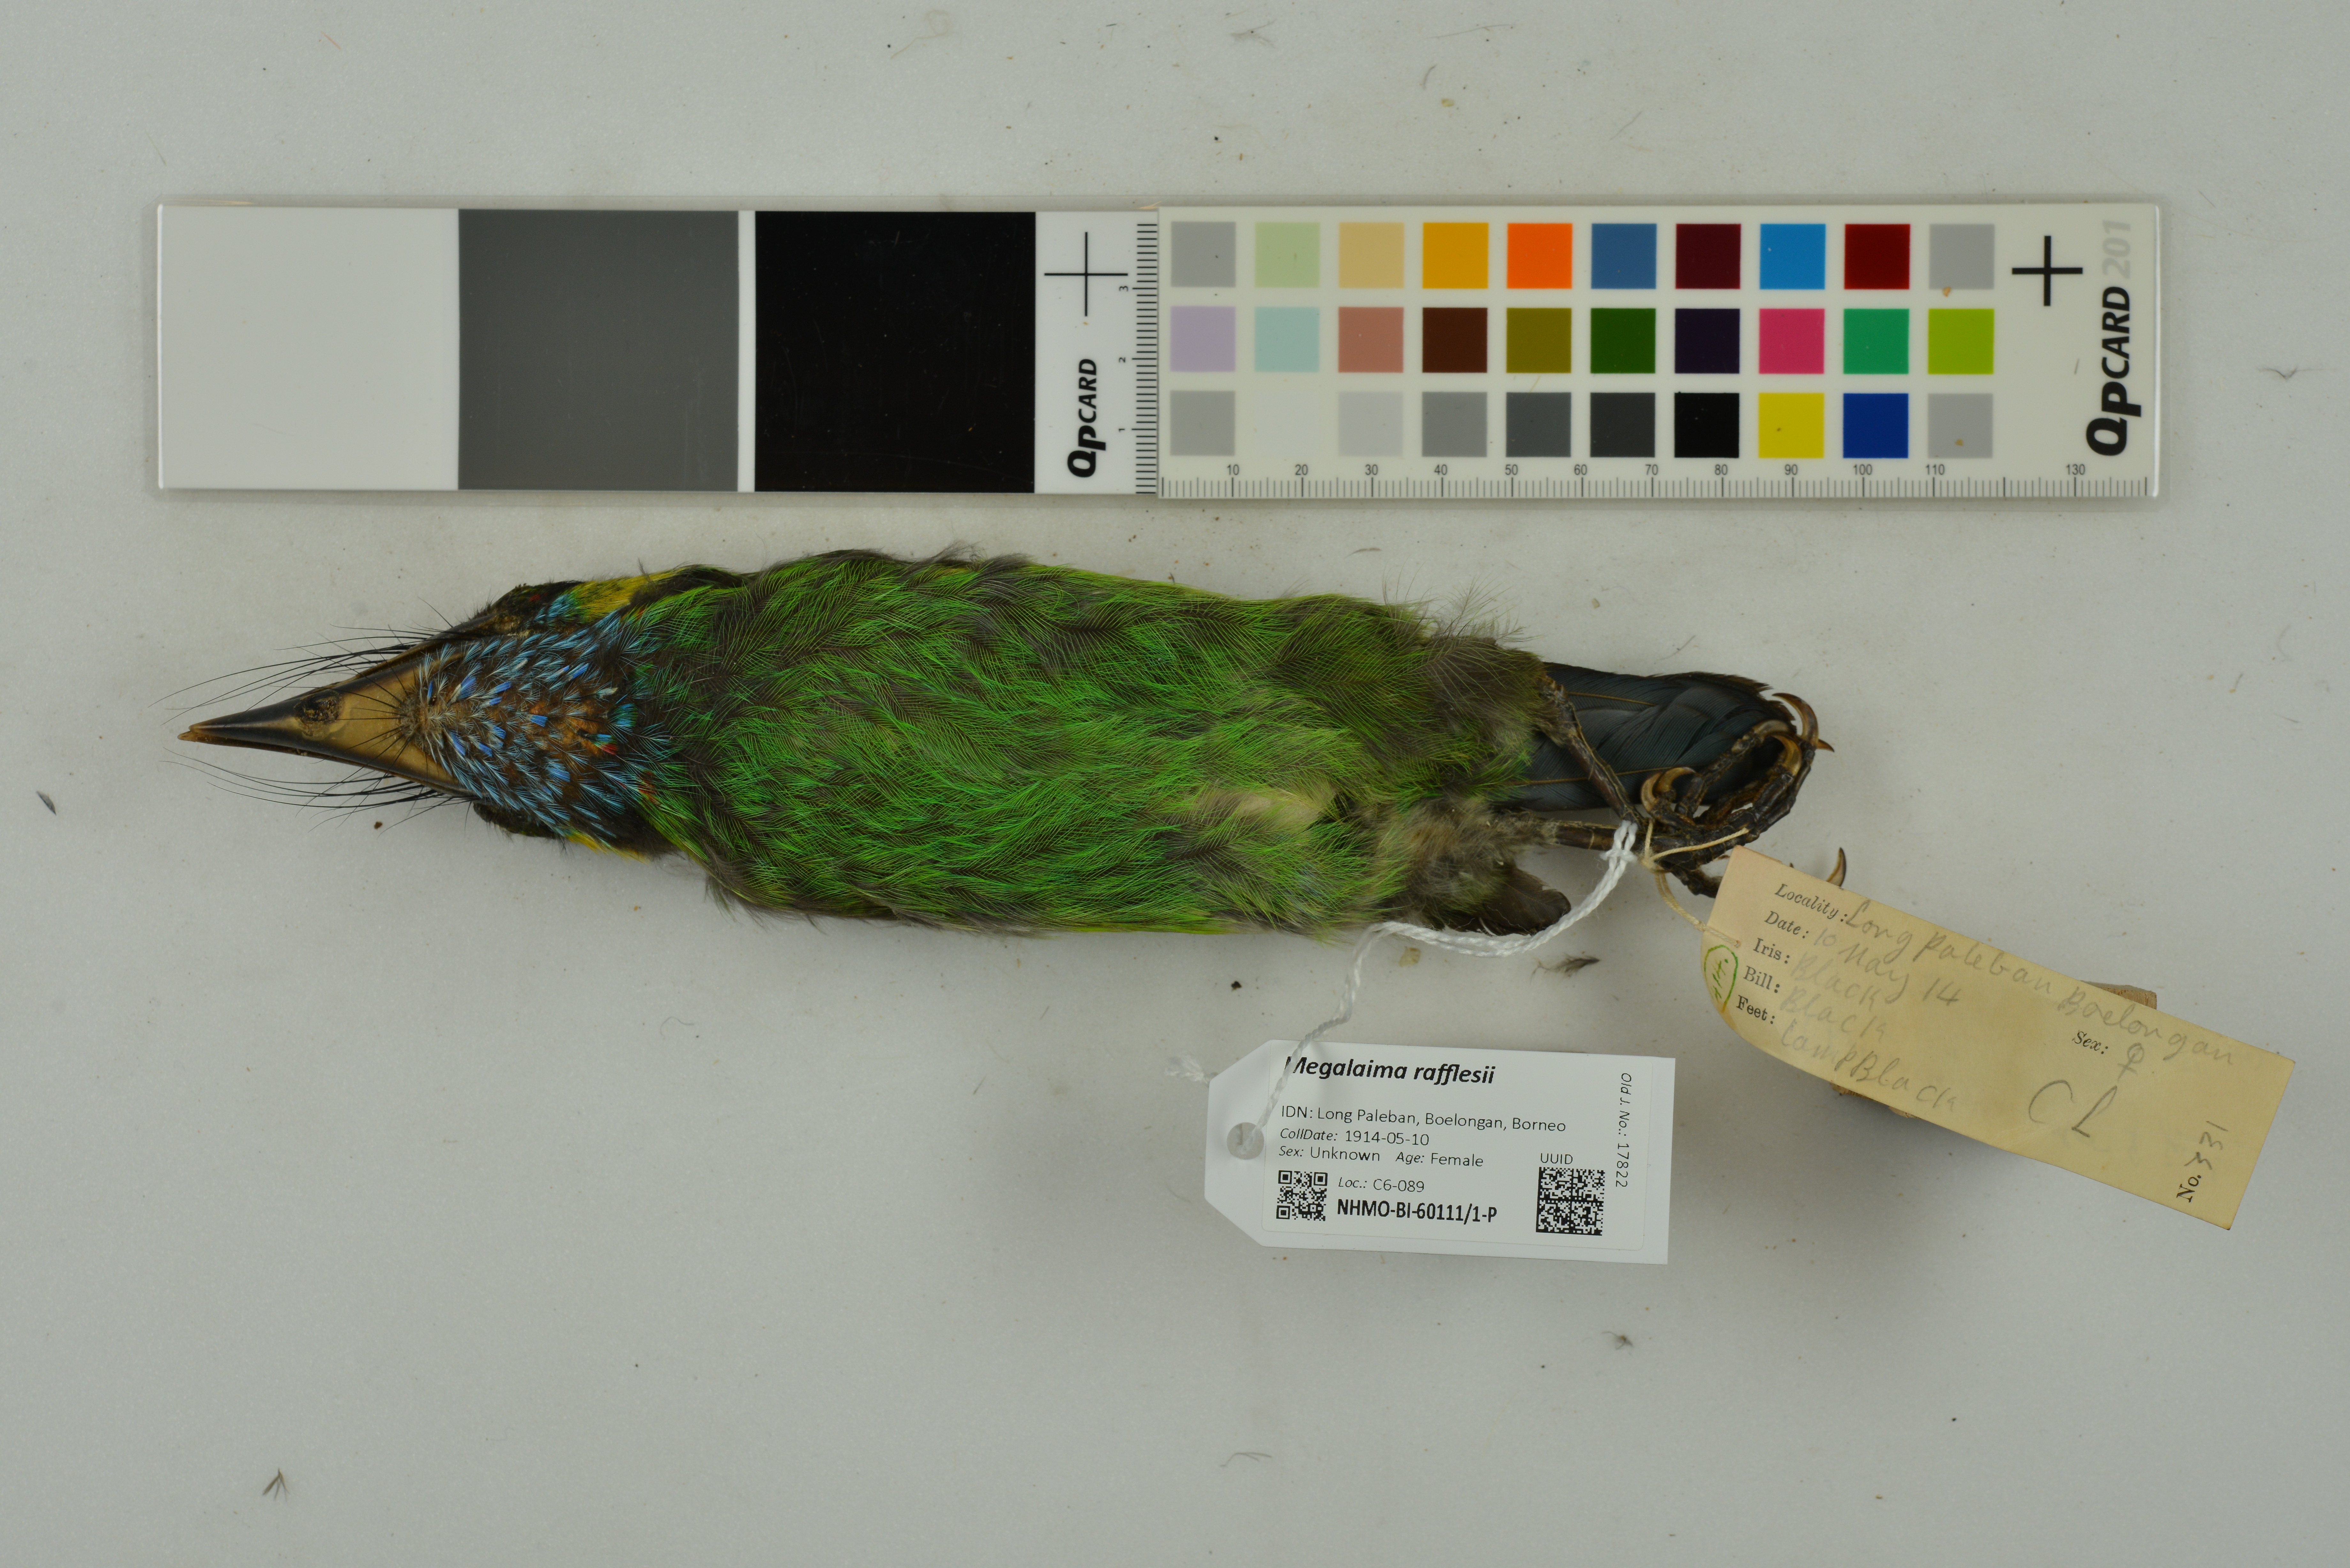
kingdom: Animalia
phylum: Chordata
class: Aves
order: Piciformes
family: Megalaimidae
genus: Psilopogon
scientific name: Psilopogon rafflesii
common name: Red-crowned barbet
